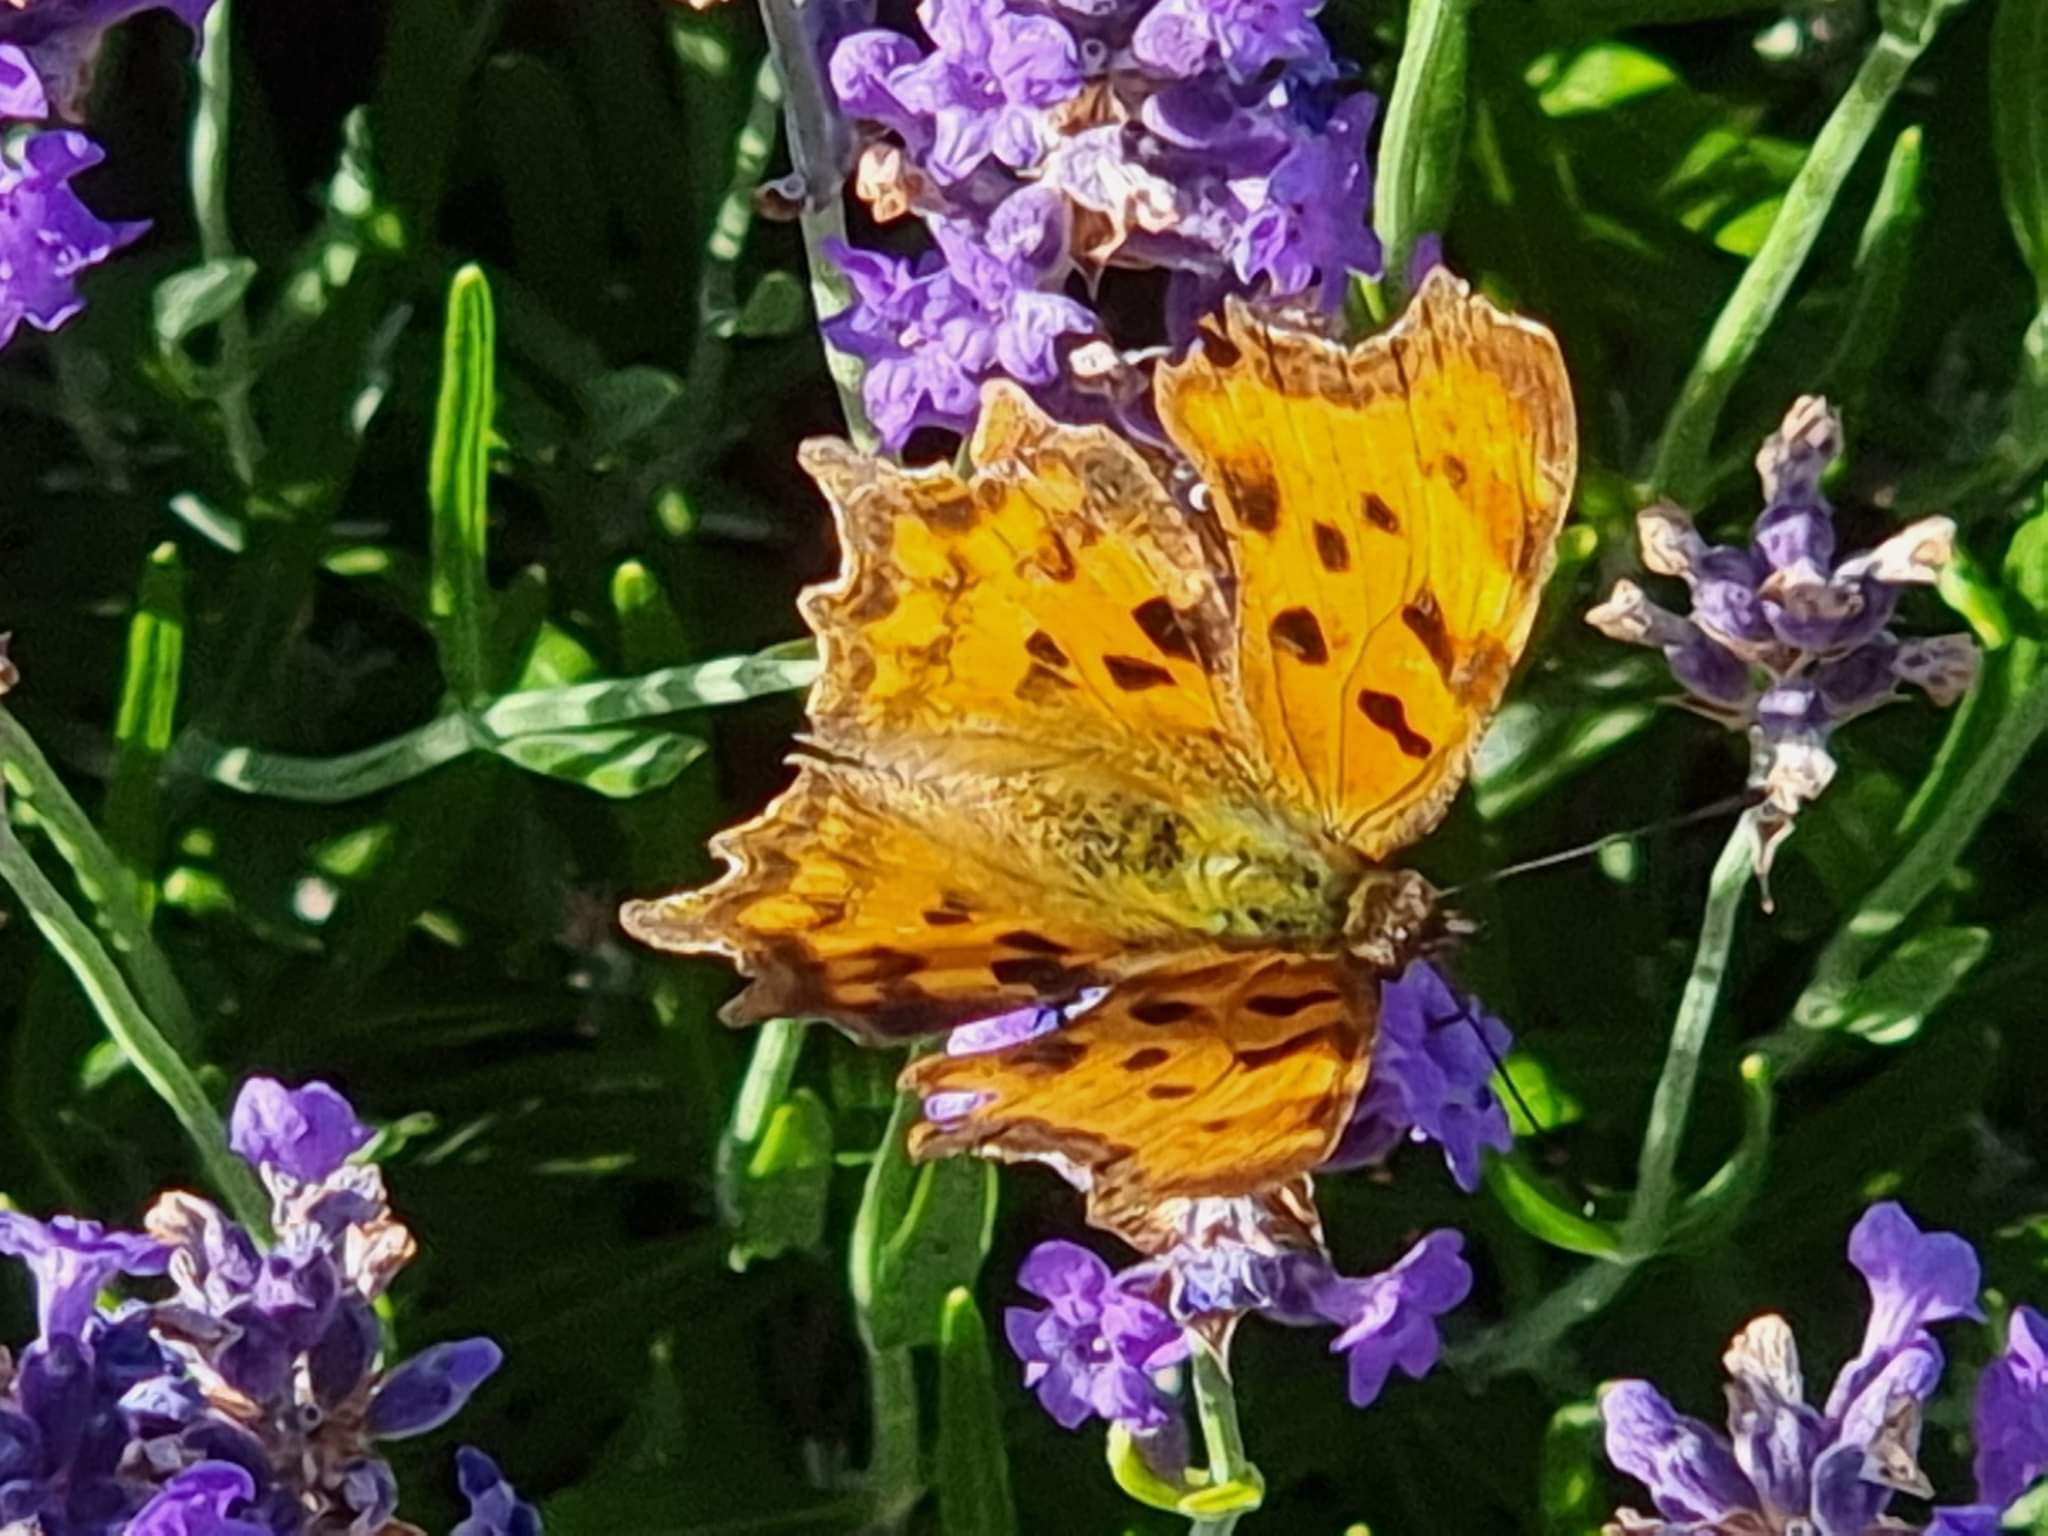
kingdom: Animalia
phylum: Arthropoda
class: Insecta
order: Lepidoptera
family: Nymphalidae
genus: Polygonia
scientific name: Polygonia c-album
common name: Det hvide C
